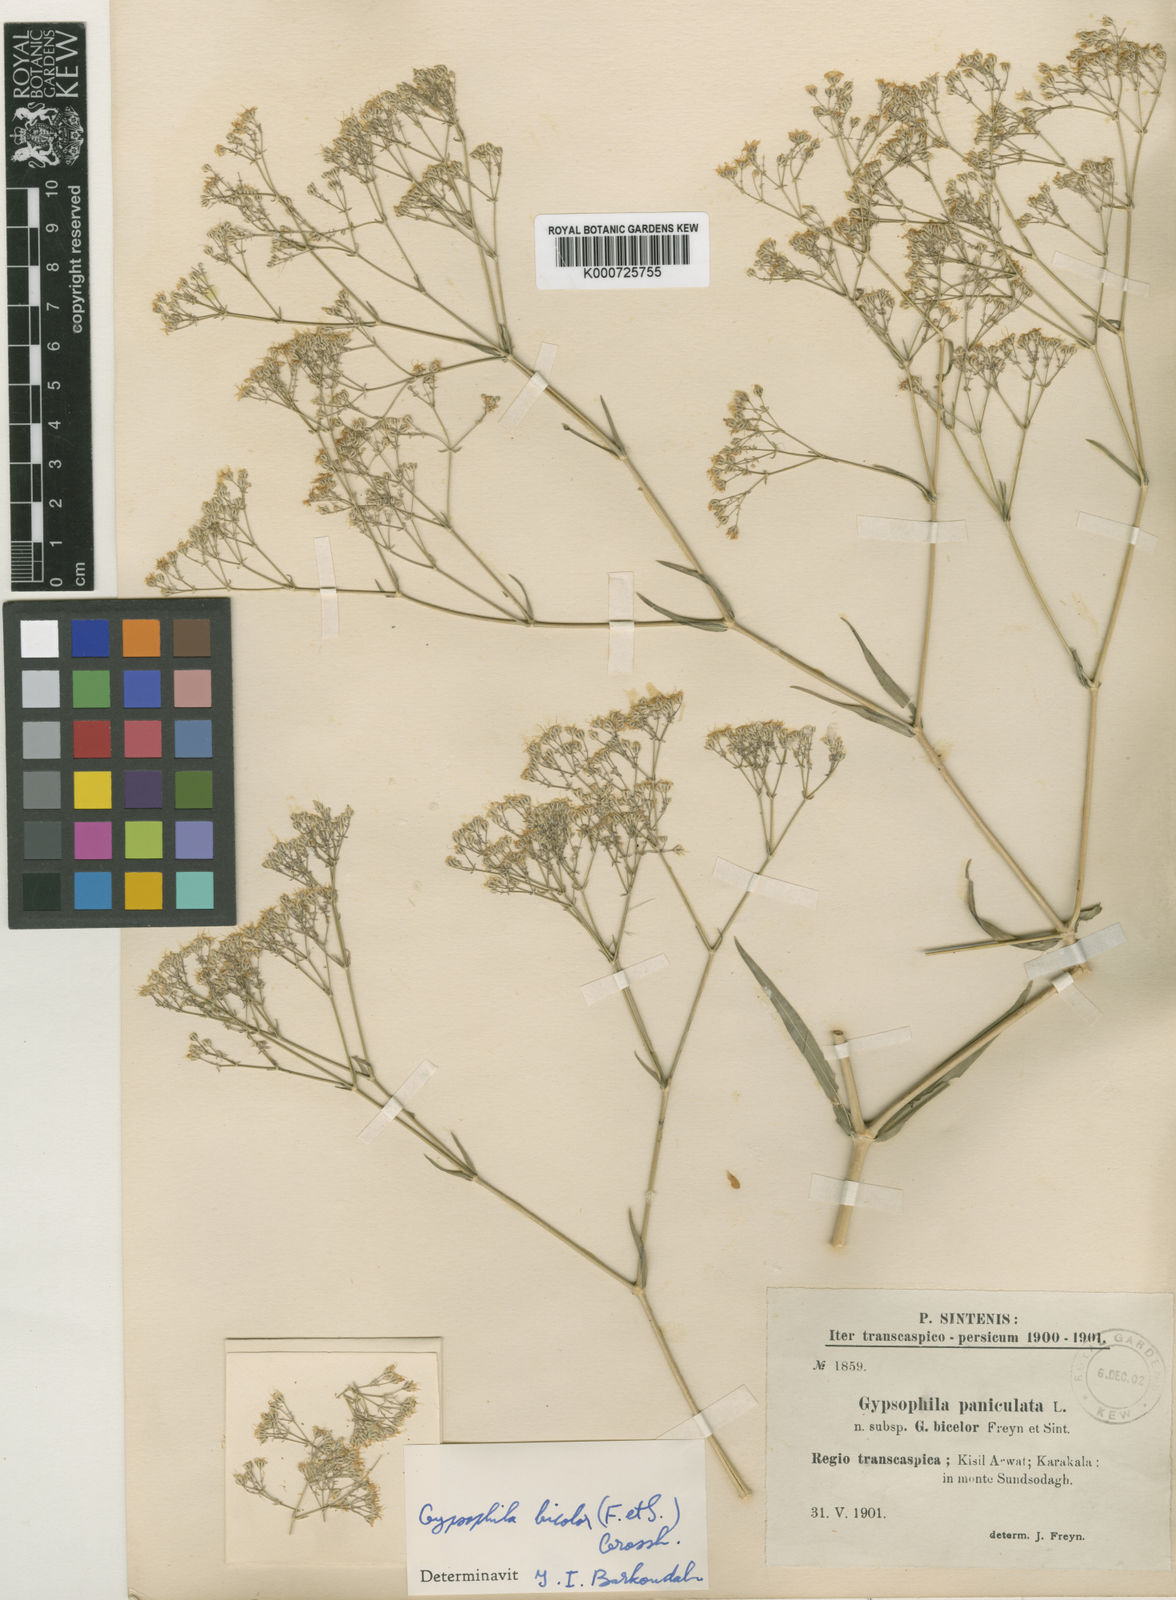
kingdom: Plantae
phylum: Tracheophyta
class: Magnoliopsida
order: Caryophyllales
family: Caryophyllaceae
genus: Gypsophila
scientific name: Gypsophila bicolor
